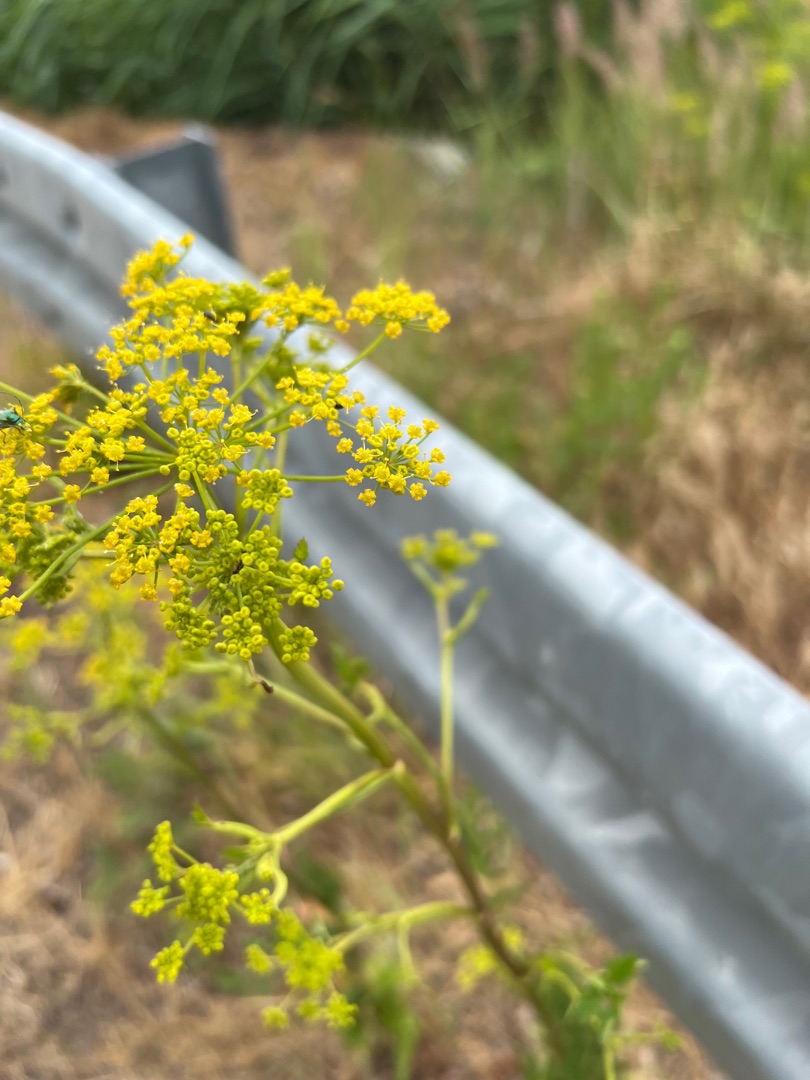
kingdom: Plantae
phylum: Tracheophyta
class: Magnoliopsida
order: Apiales
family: Apiaceae
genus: Pastinaca
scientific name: Pastinaca sativa
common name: Pastinak
